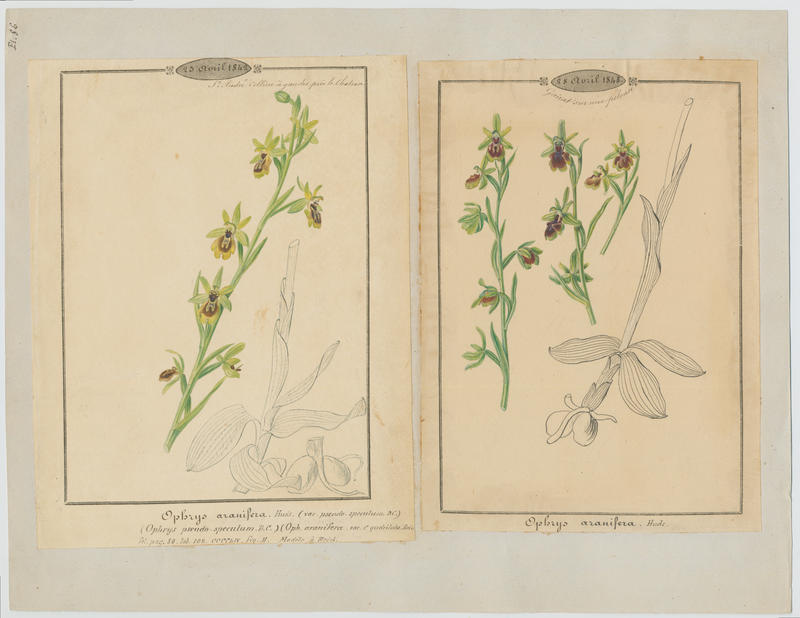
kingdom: Plantae
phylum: Tracheophyta
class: Liliopsida
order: Asparagales
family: Orchidaceae
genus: Ophrys
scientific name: Ophrys sphegodes
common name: Early spider-orchid
